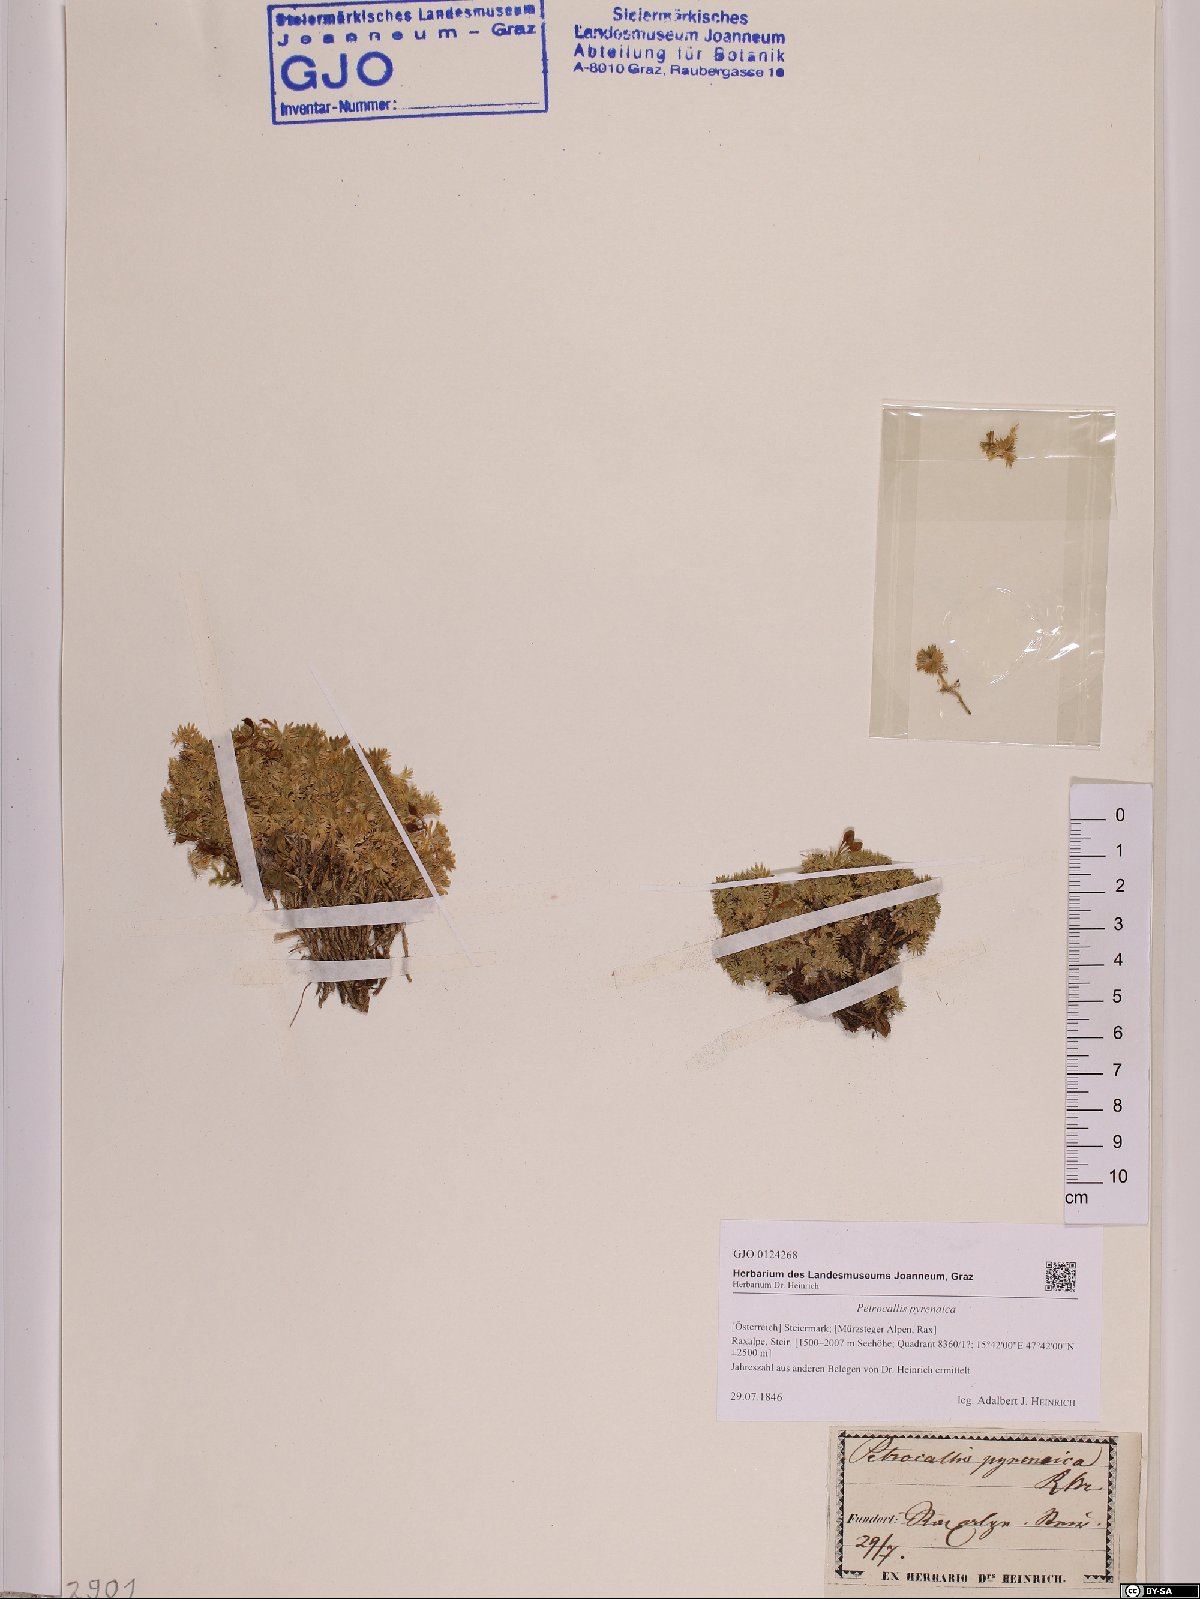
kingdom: Plantae
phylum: Tracheophyta
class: Magnoliopsida
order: Brassicales
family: Brassicaceae
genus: Petrocallis
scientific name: Petrocallis pyrenaica
